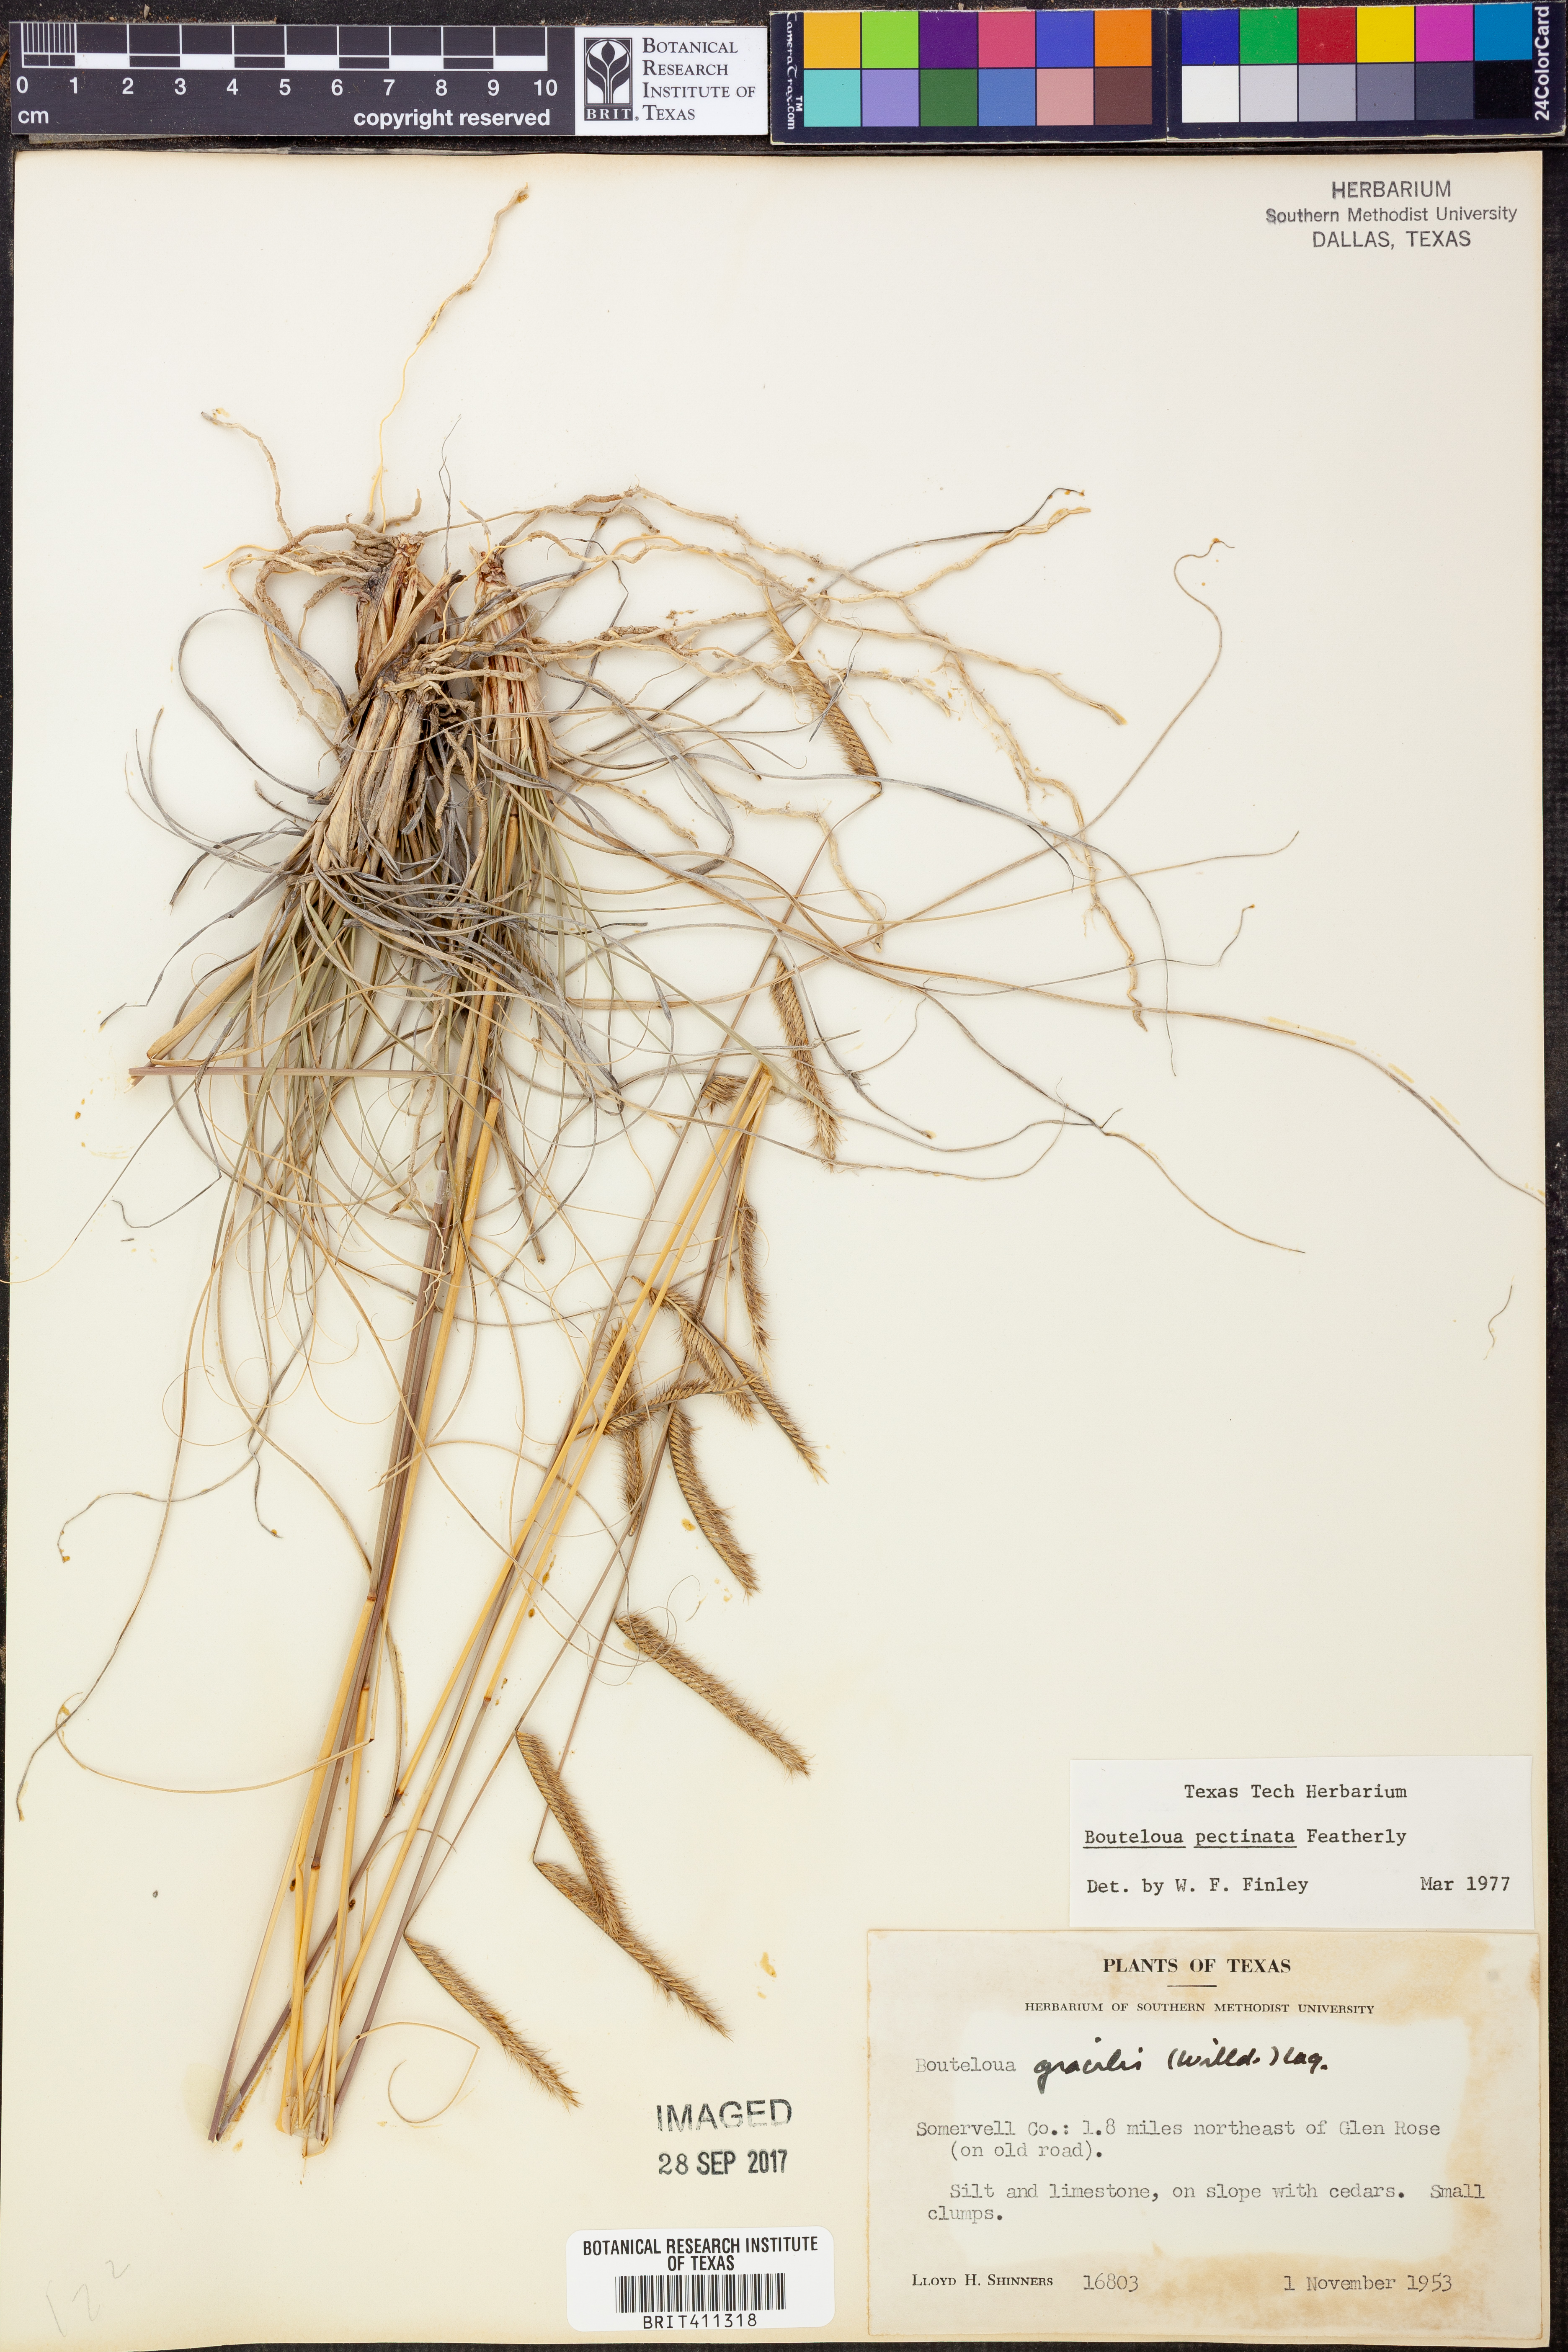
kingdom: Plantae
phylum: Tracheophyta
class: Liliopsida
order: Poales
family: Poaceae
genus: Bouteloua
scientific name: Bouteloua pectinata
